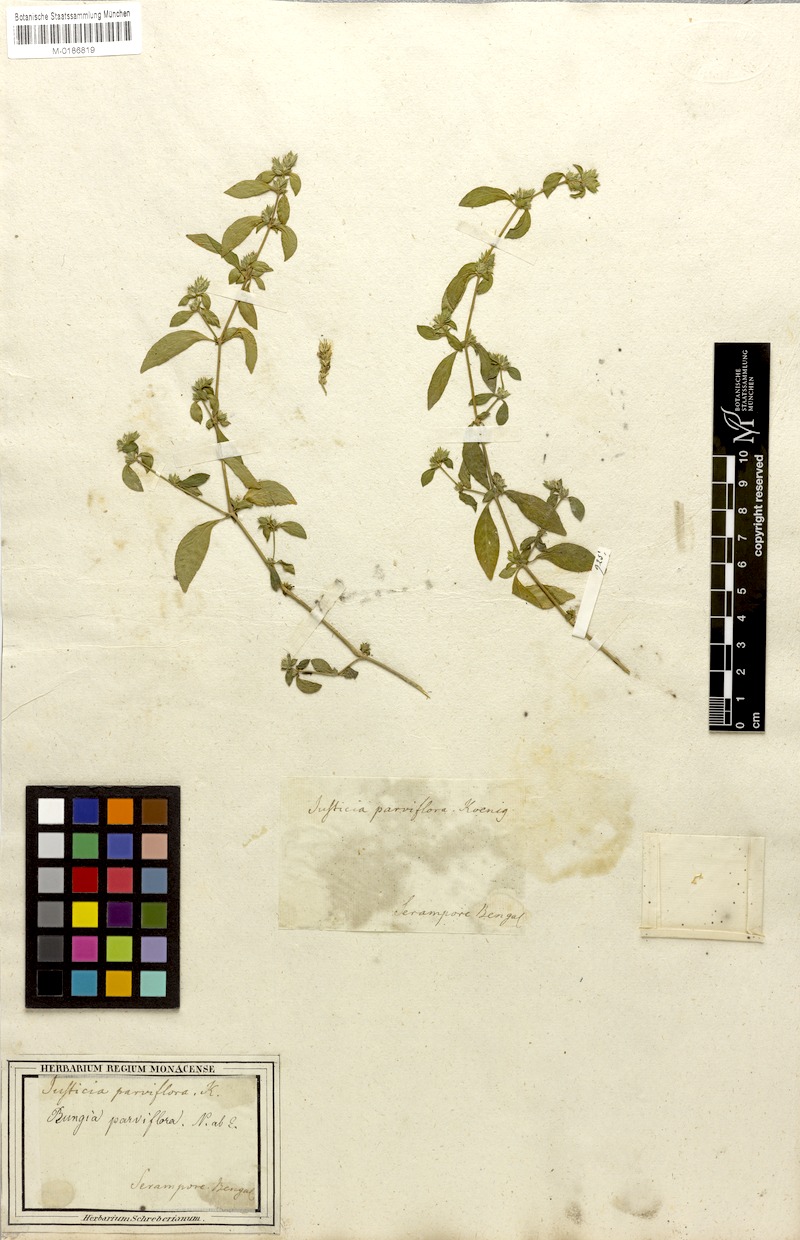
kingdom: Plantae
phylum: Tracheophyta
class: Magnoliopsida
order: Lamiales
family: Acanthaceae
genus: Rungia
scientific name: Rungia parviflora
